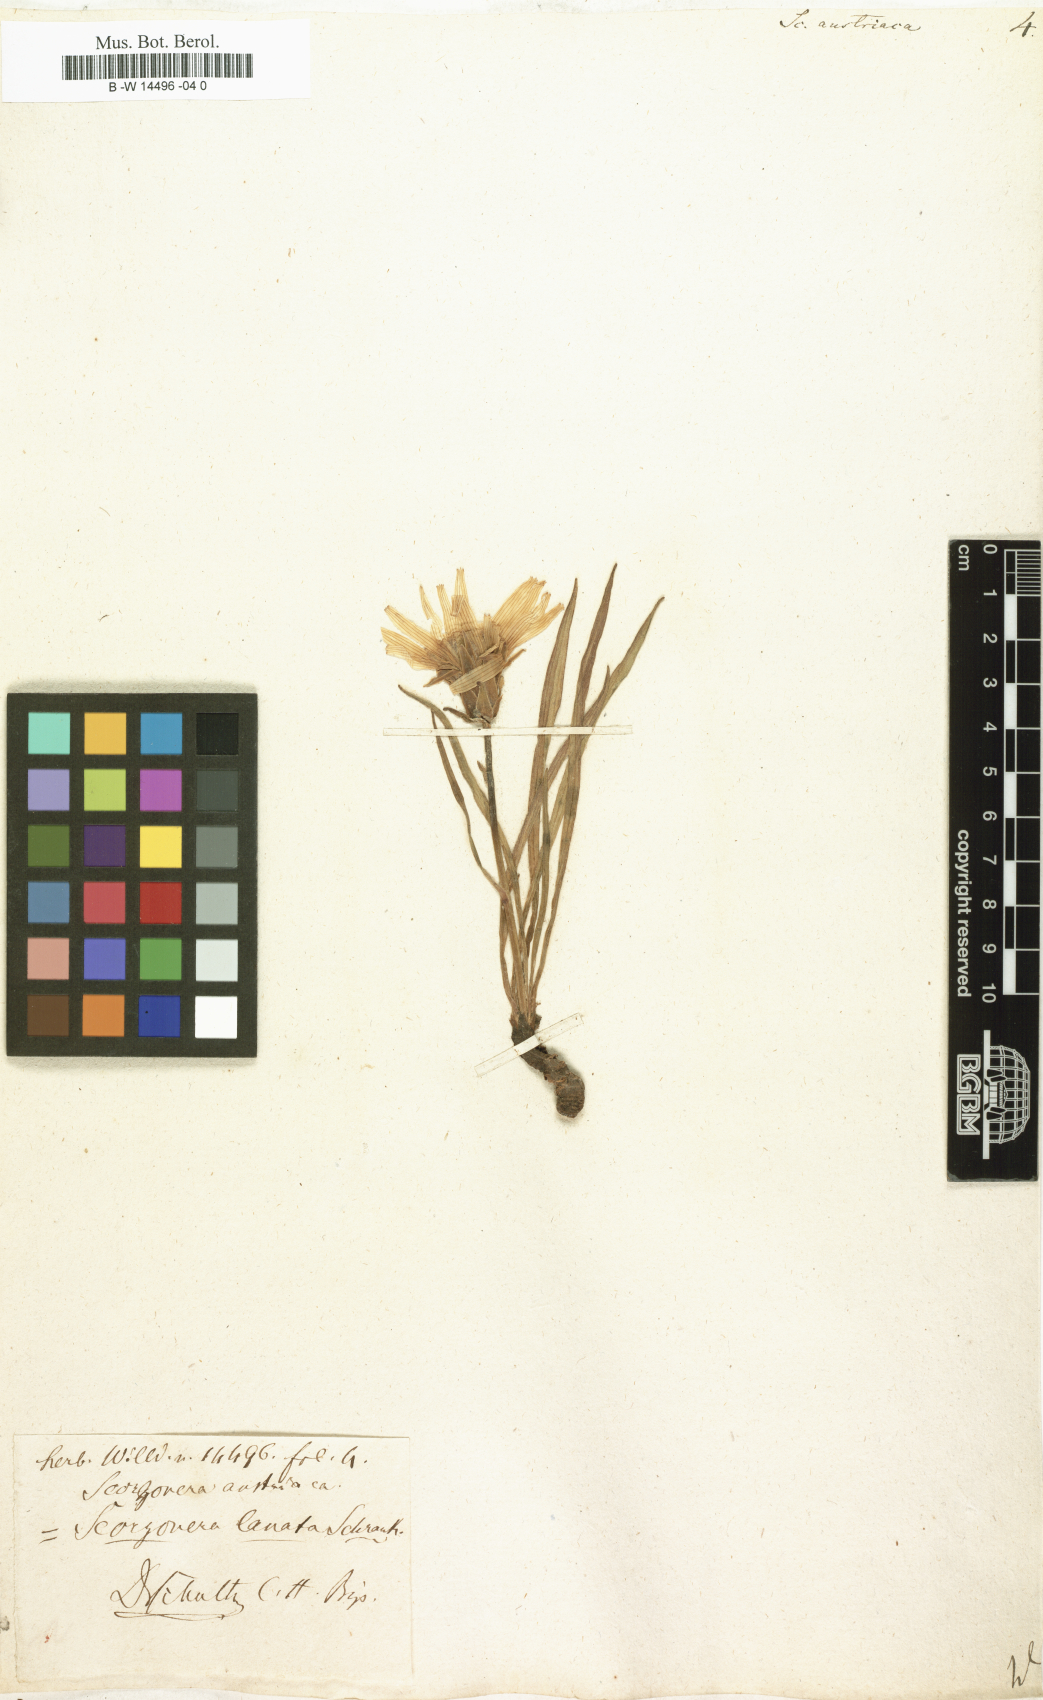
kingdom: Plantae
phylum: Tracheophyta
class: Magnoliopsida
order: Asterales
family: Asteraceae
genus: Scorzonera
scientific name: Scorzonera austriaca
